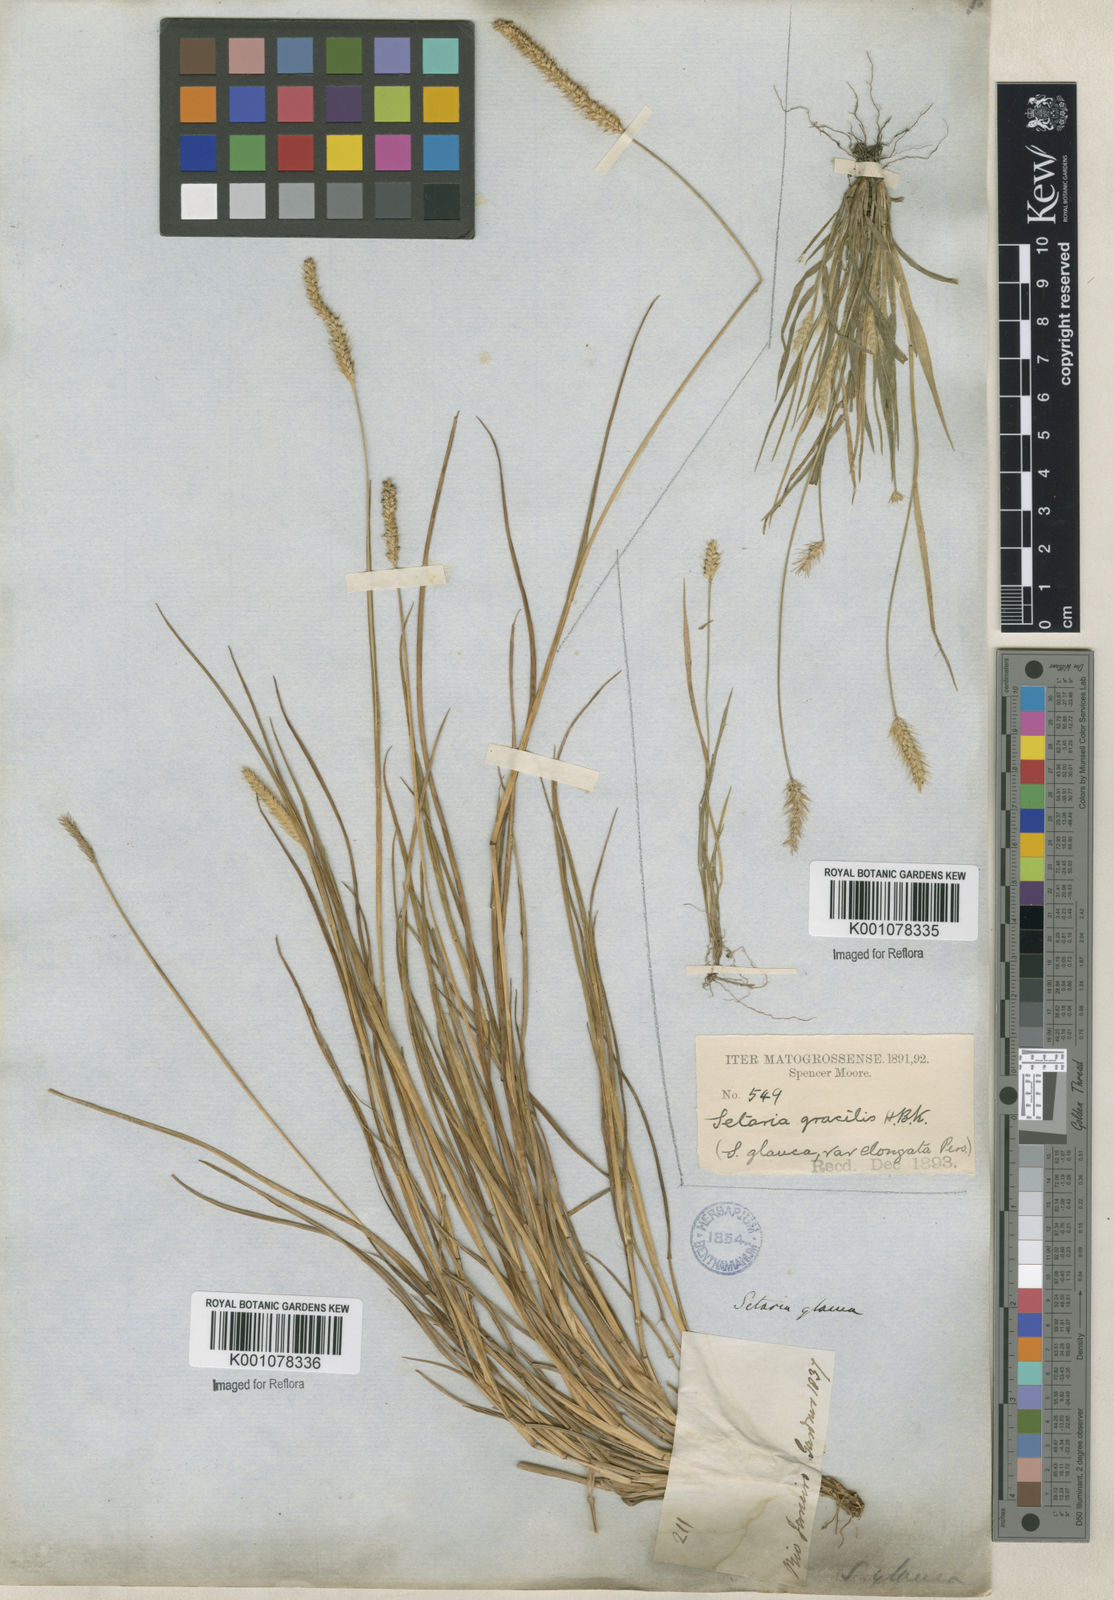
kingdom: Plantae
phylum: Tracheophyta
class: Liliopsida
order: Poales
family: Poaceae
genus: Setaria
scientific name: Setaria parviflora
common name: Knotroot bristle-grass
